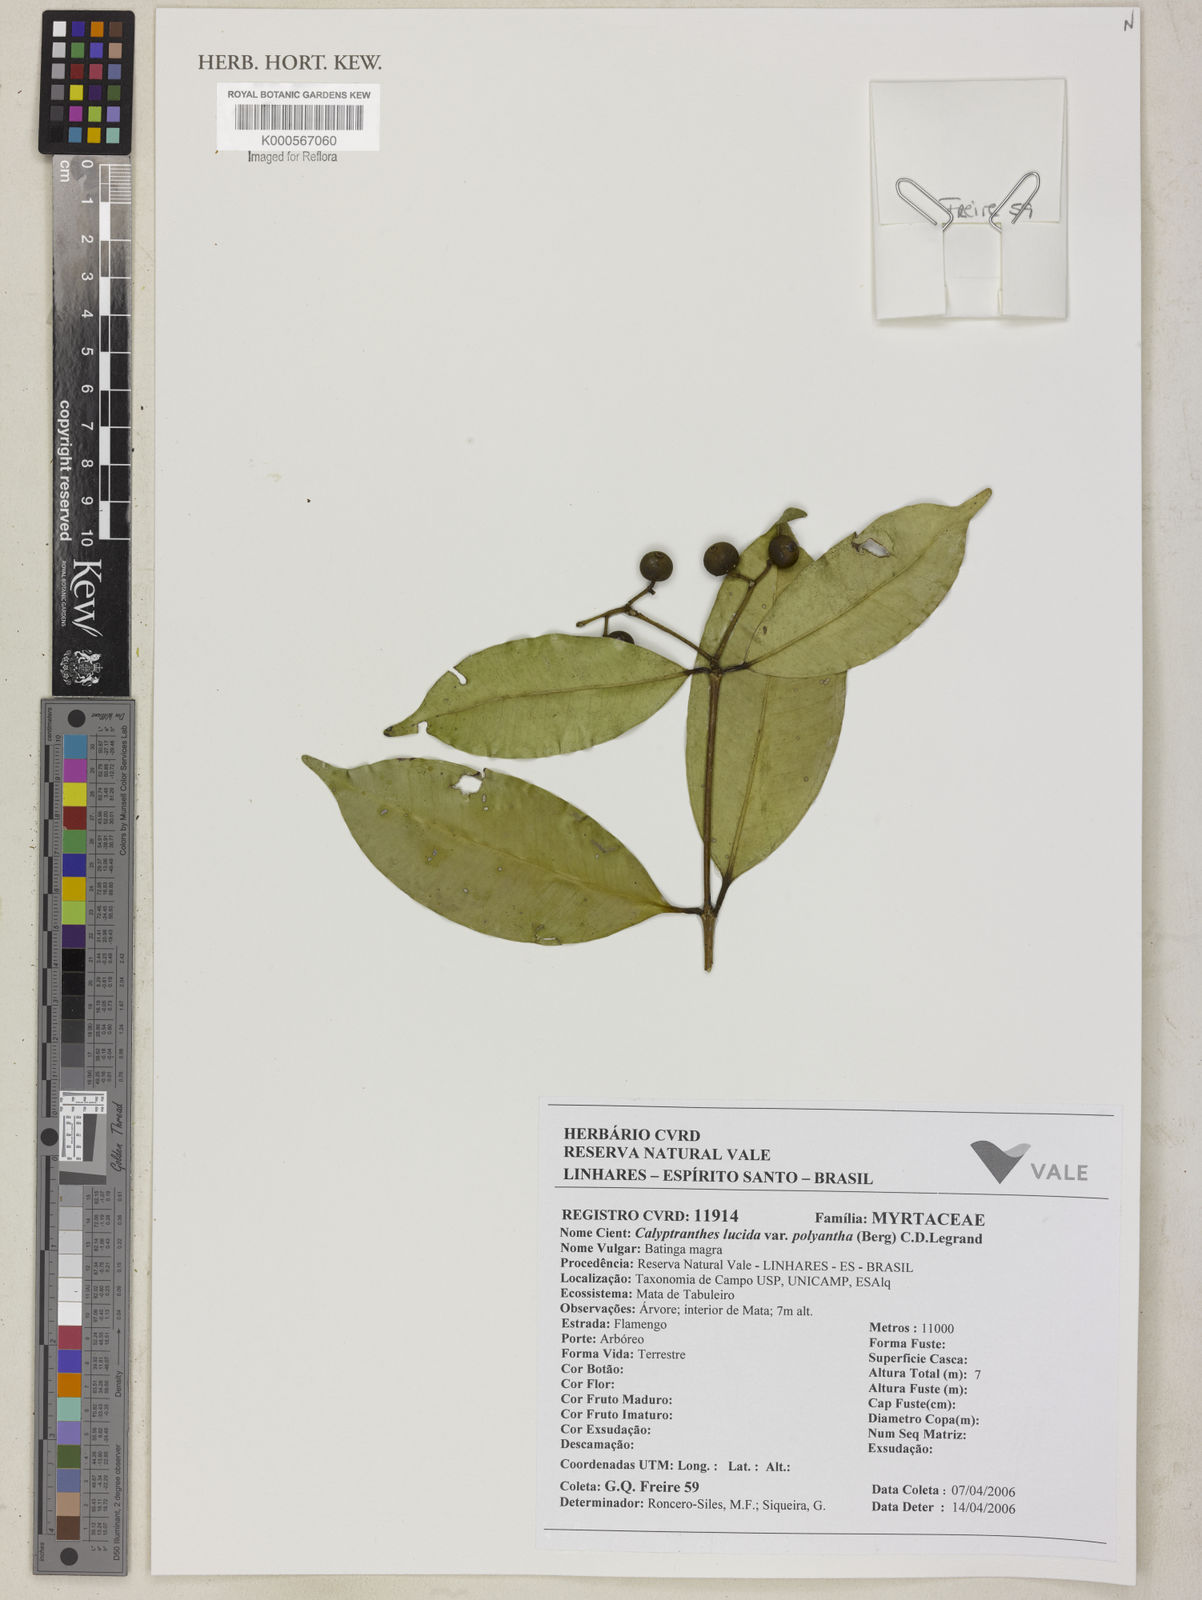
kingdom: Plantae
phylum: Tracheophyta
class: Magnoliopsida
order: Myrtales
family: Myrtaceae
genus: Myrcia
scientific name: Myrcia neolucida
